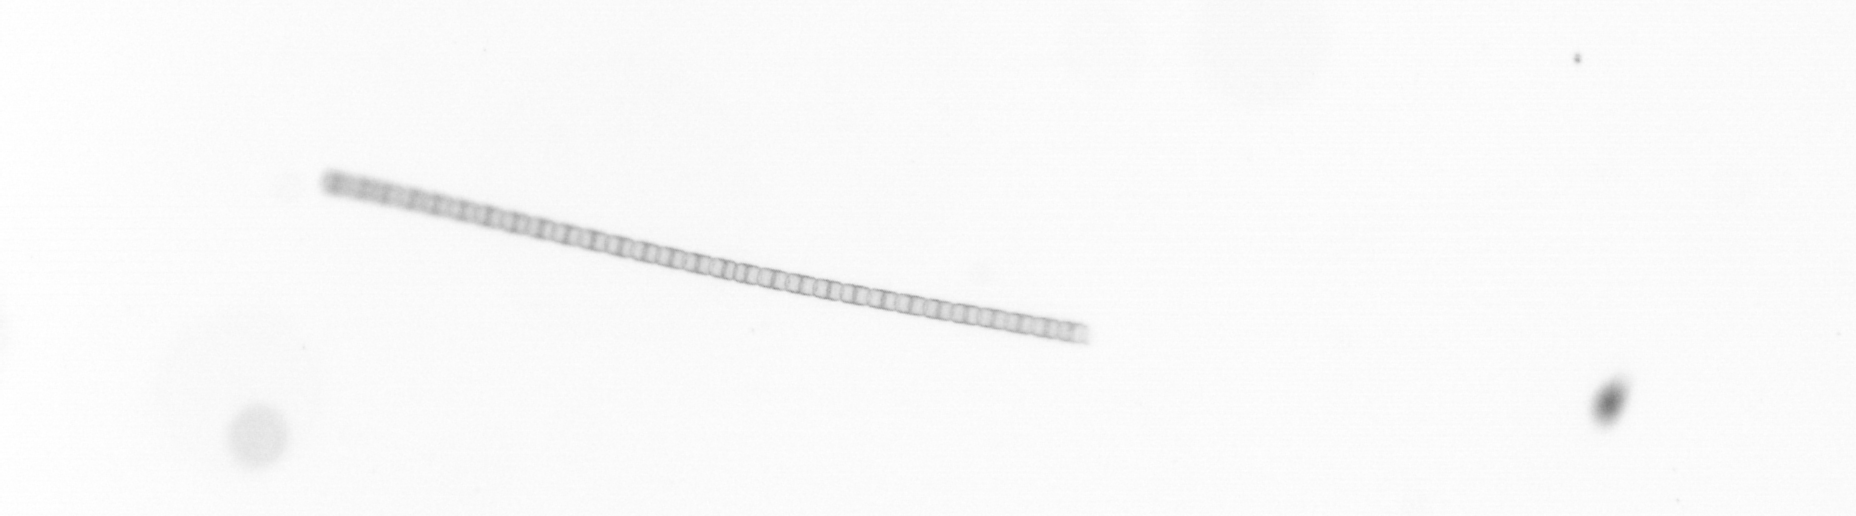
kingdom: Chromista
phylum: Ochrophyta
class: Bacillariophyceae
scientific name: Bacillariophyceae
